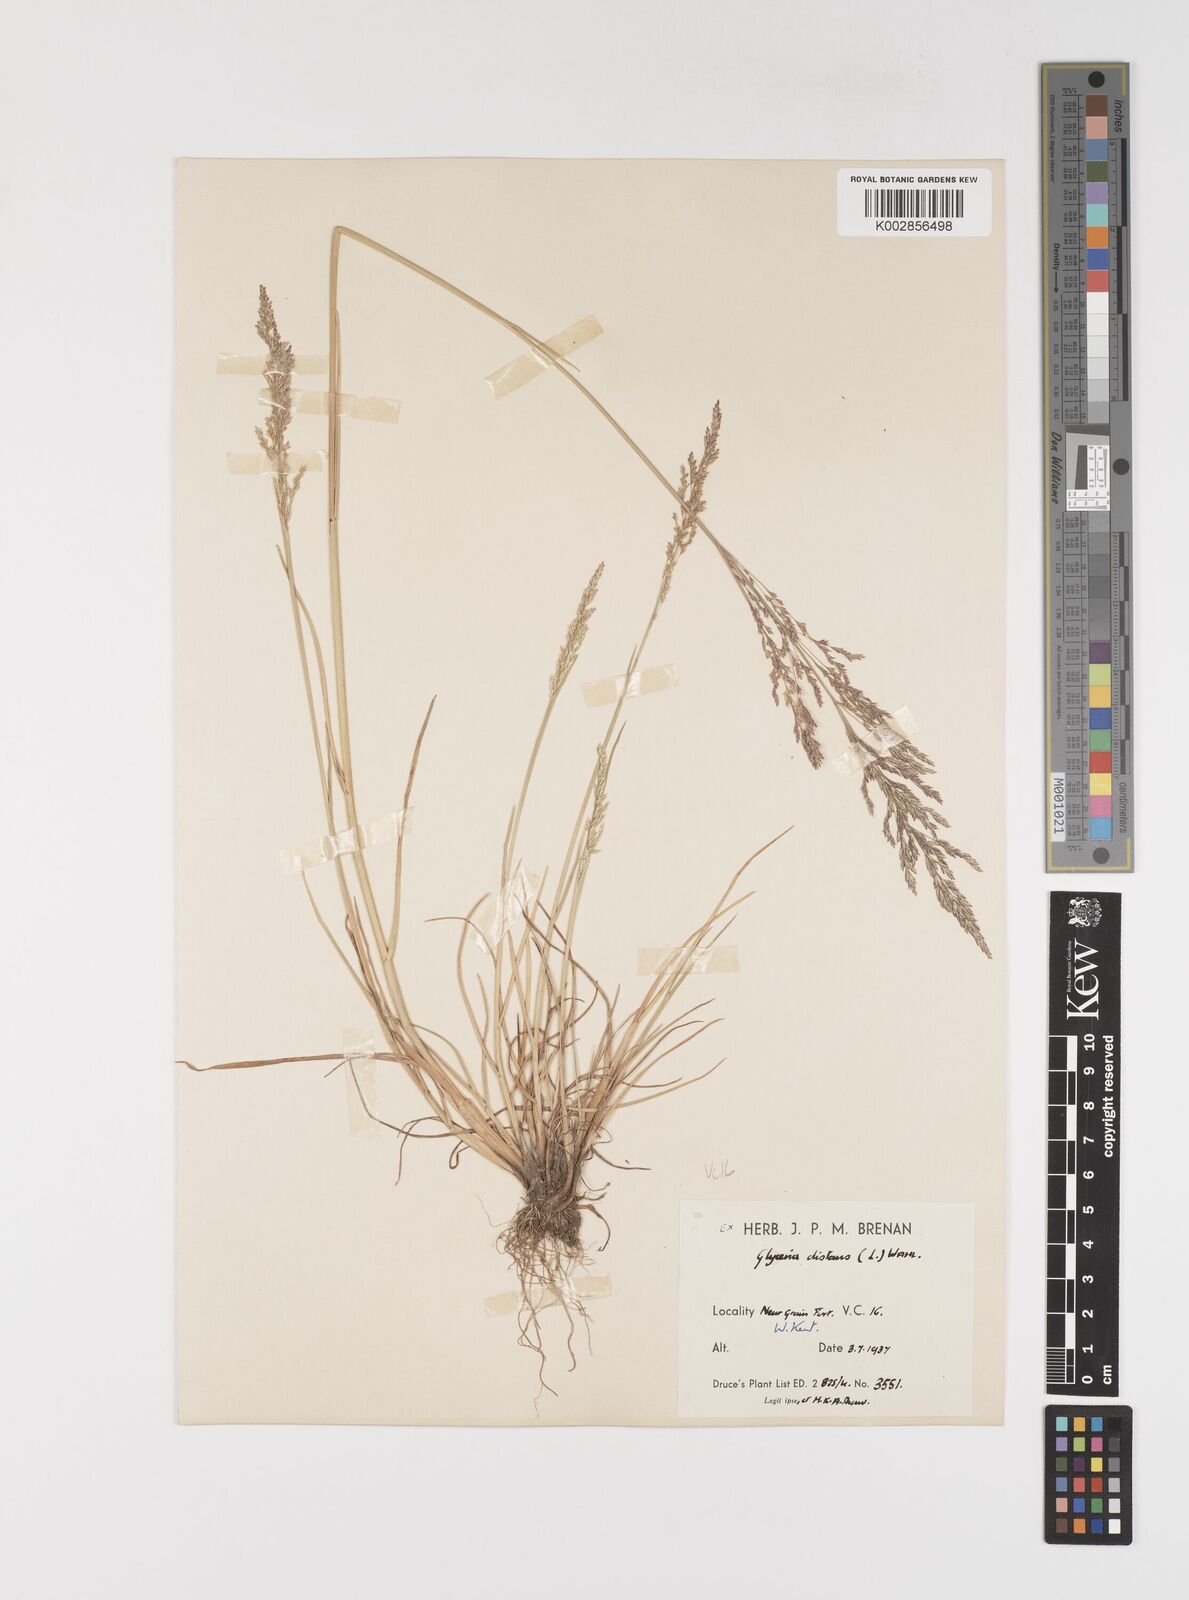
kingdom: Plantae
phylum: Tracheophyta
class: Liliopsida
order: Poales
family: Poaceae
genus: Puccinellia
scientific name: Puccinellia distans
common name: Weeping alkaligrass
